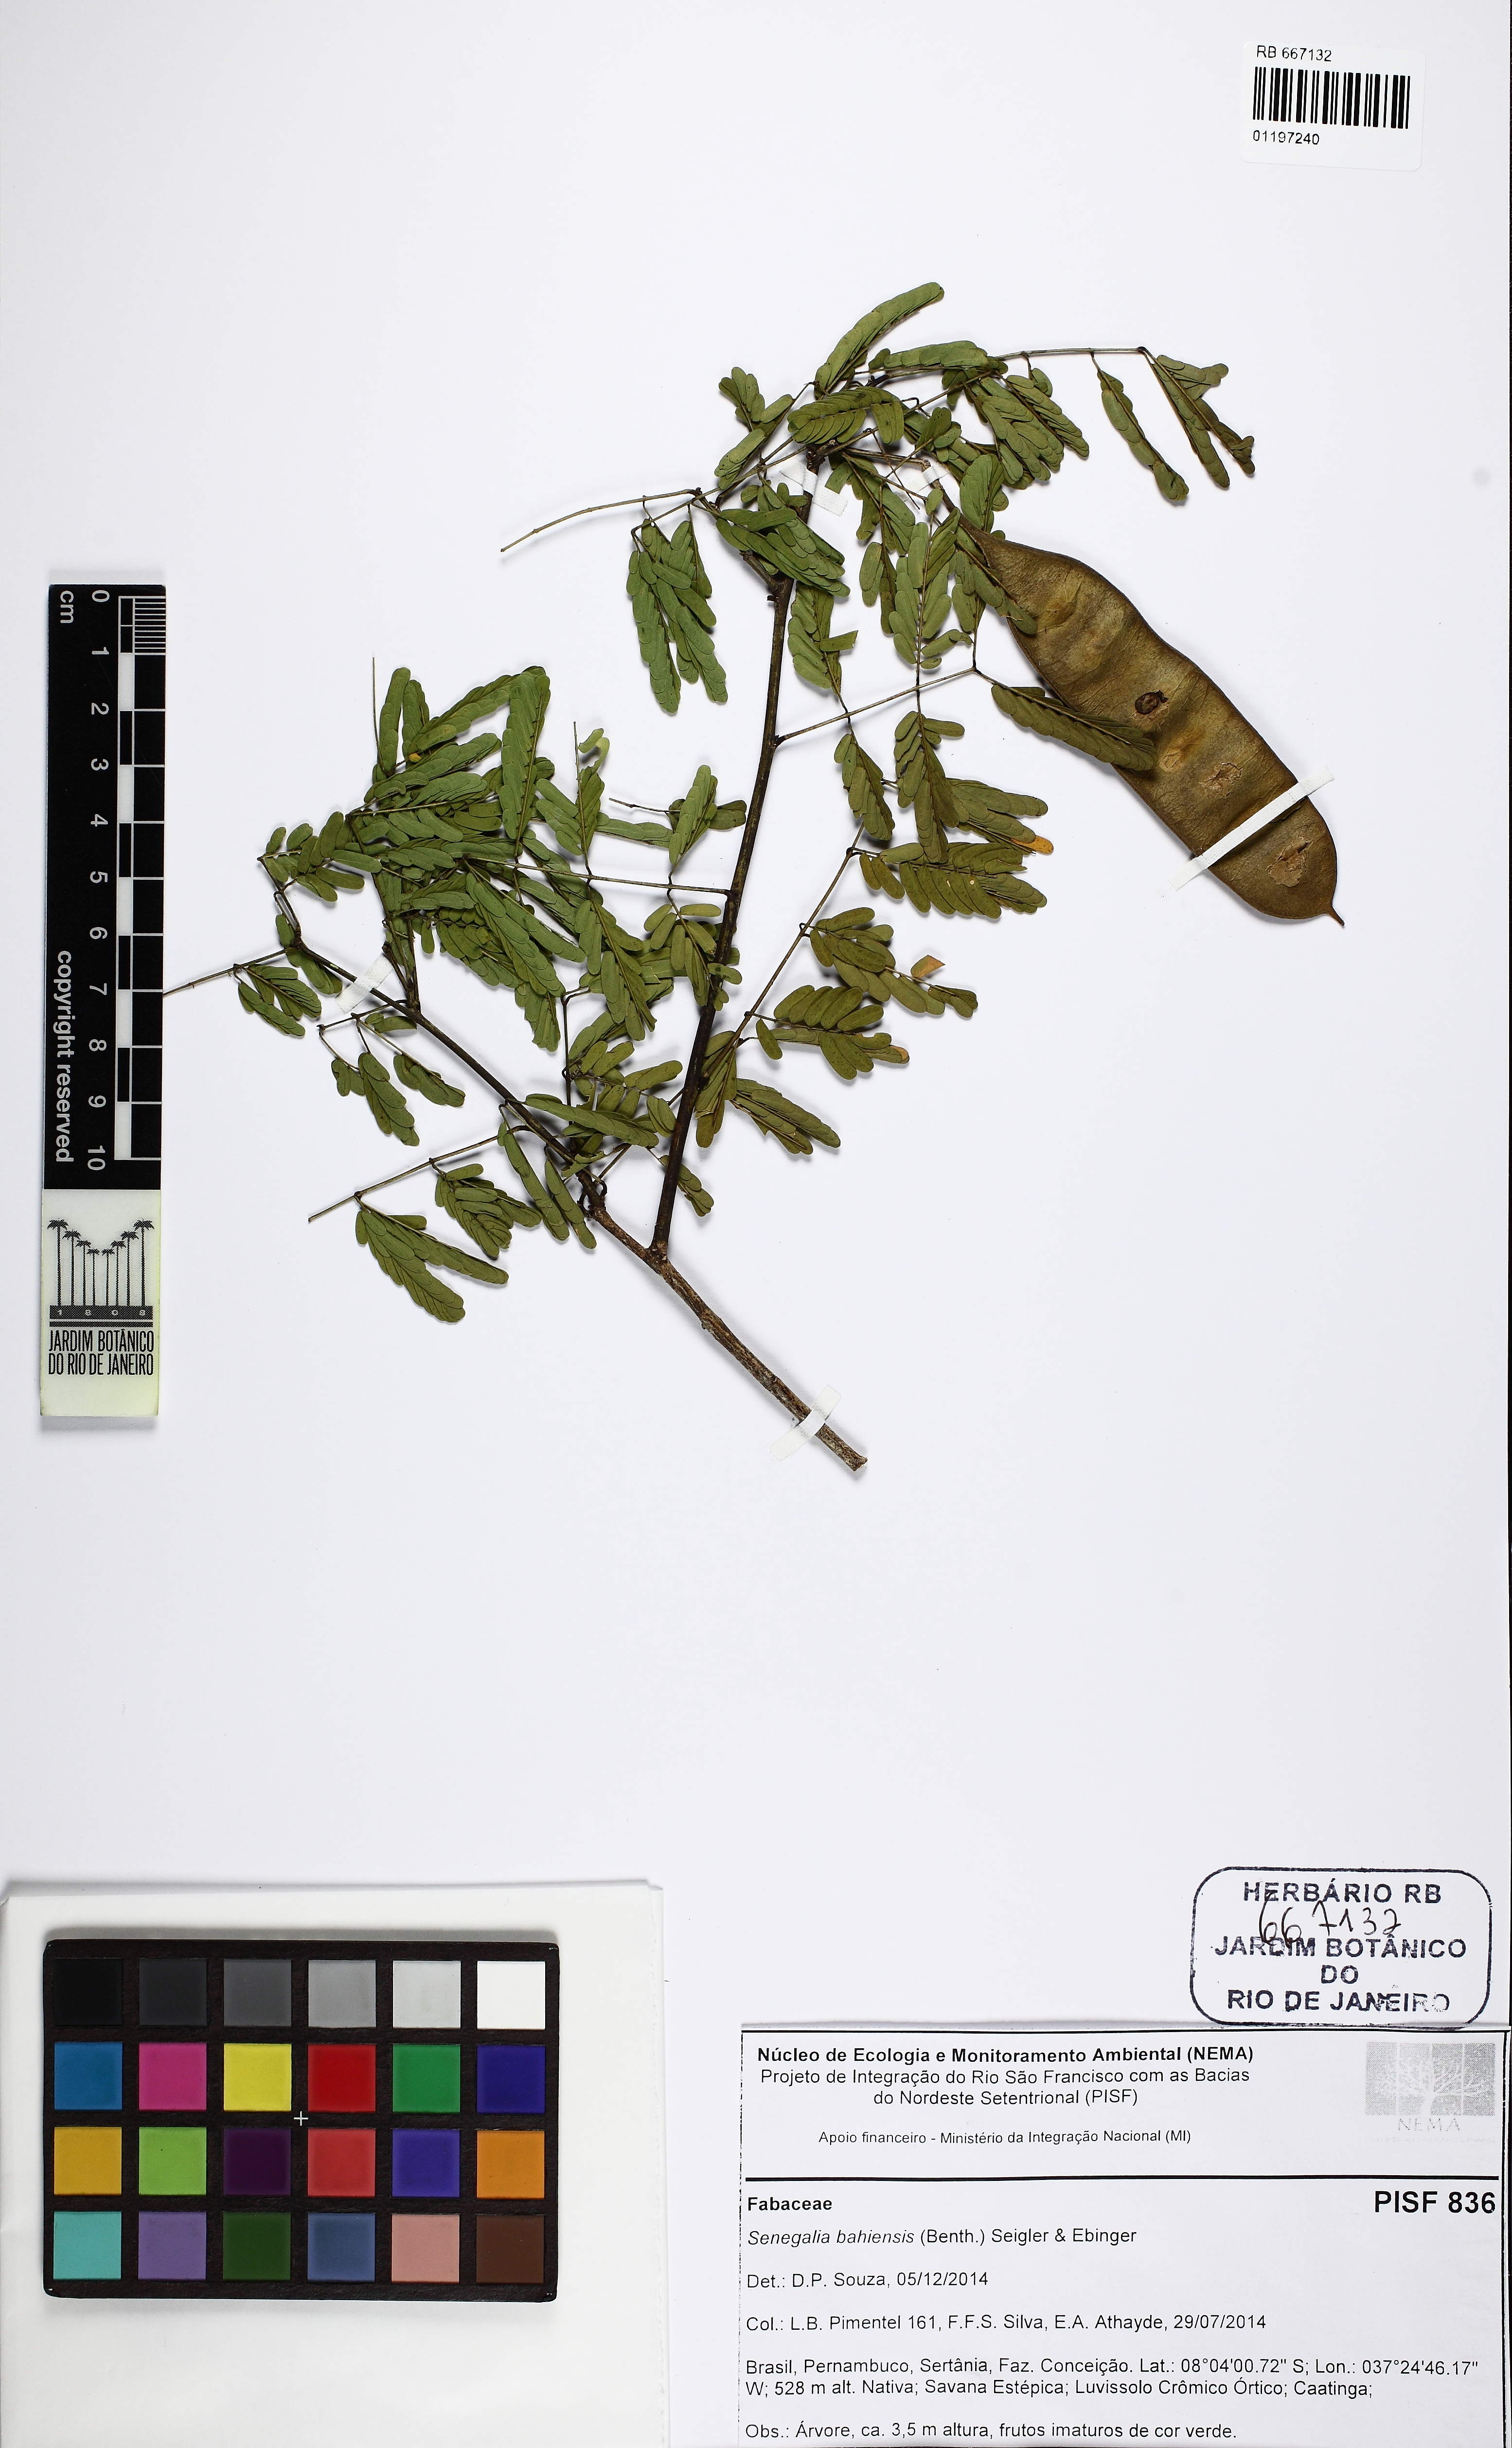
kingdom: Plantae
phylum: Tracheophyta
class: Magnoliopsida
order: Fabales
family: Fabaceae
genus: Senegalia
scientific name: Senegalia bahiensis
